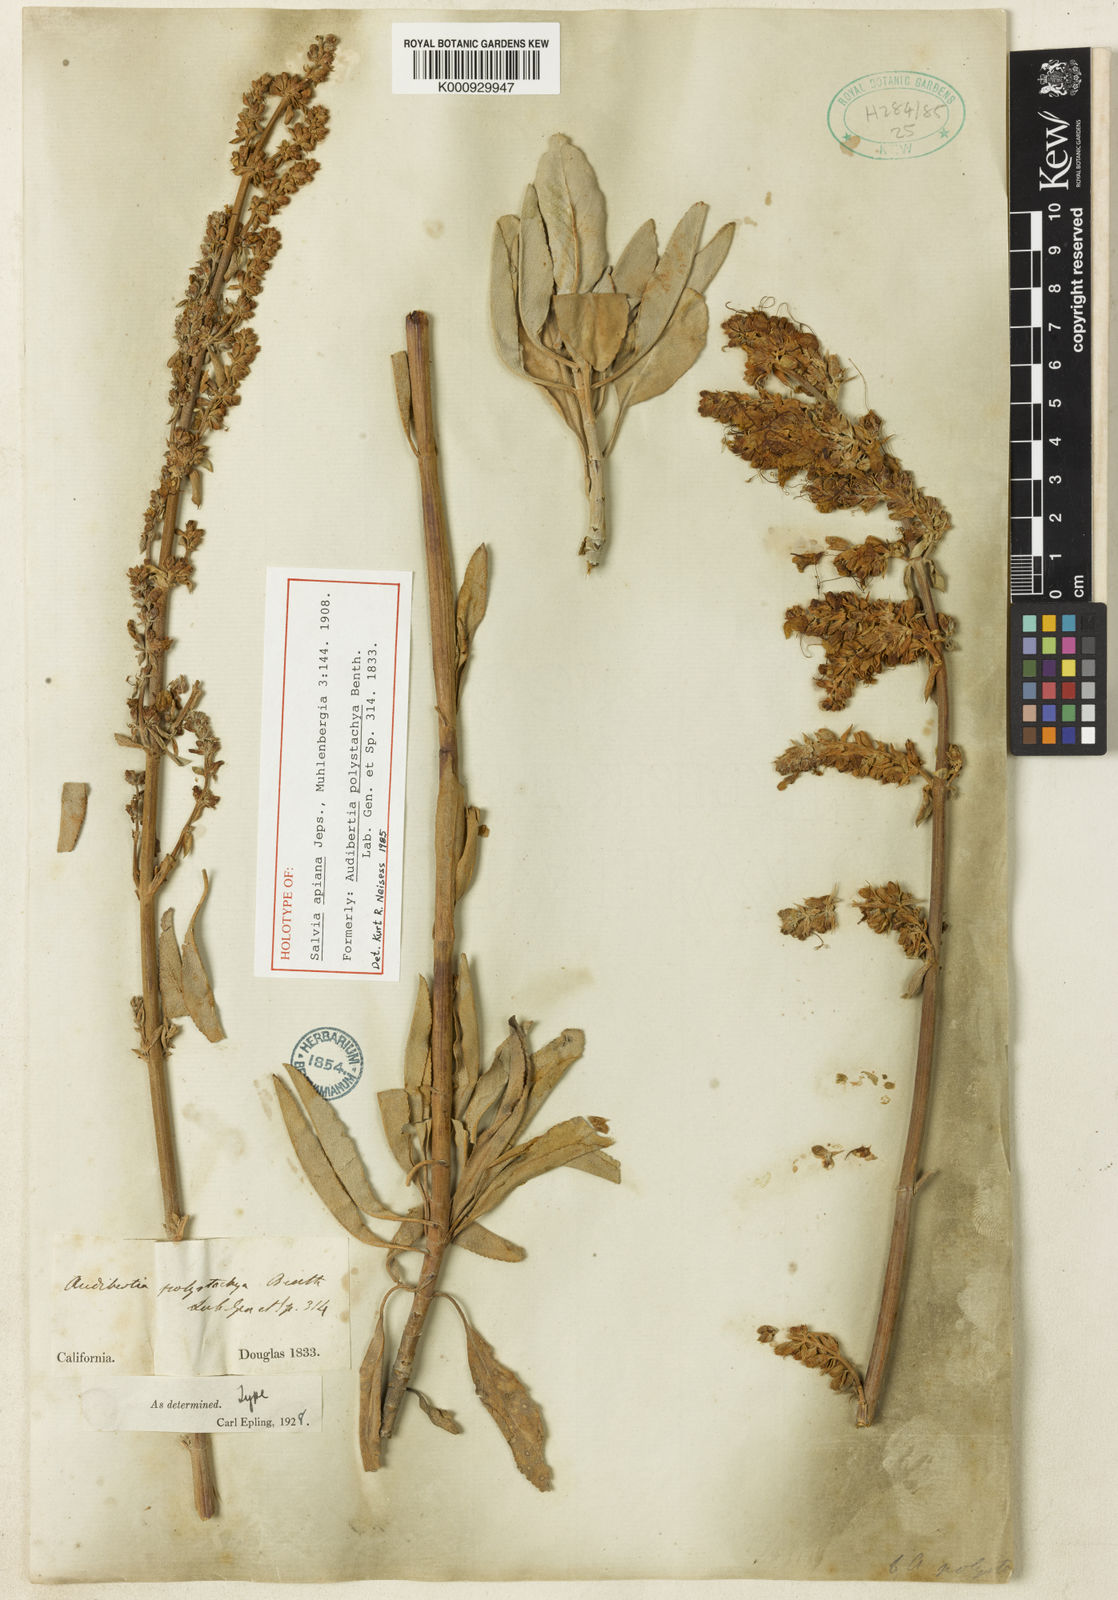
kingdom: Plantae
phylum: Tracheophyta
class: Magnoliopsida
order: Lamiales
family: Lamiaceae
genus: Salvia
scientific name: Salvia apiana
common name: White sage
